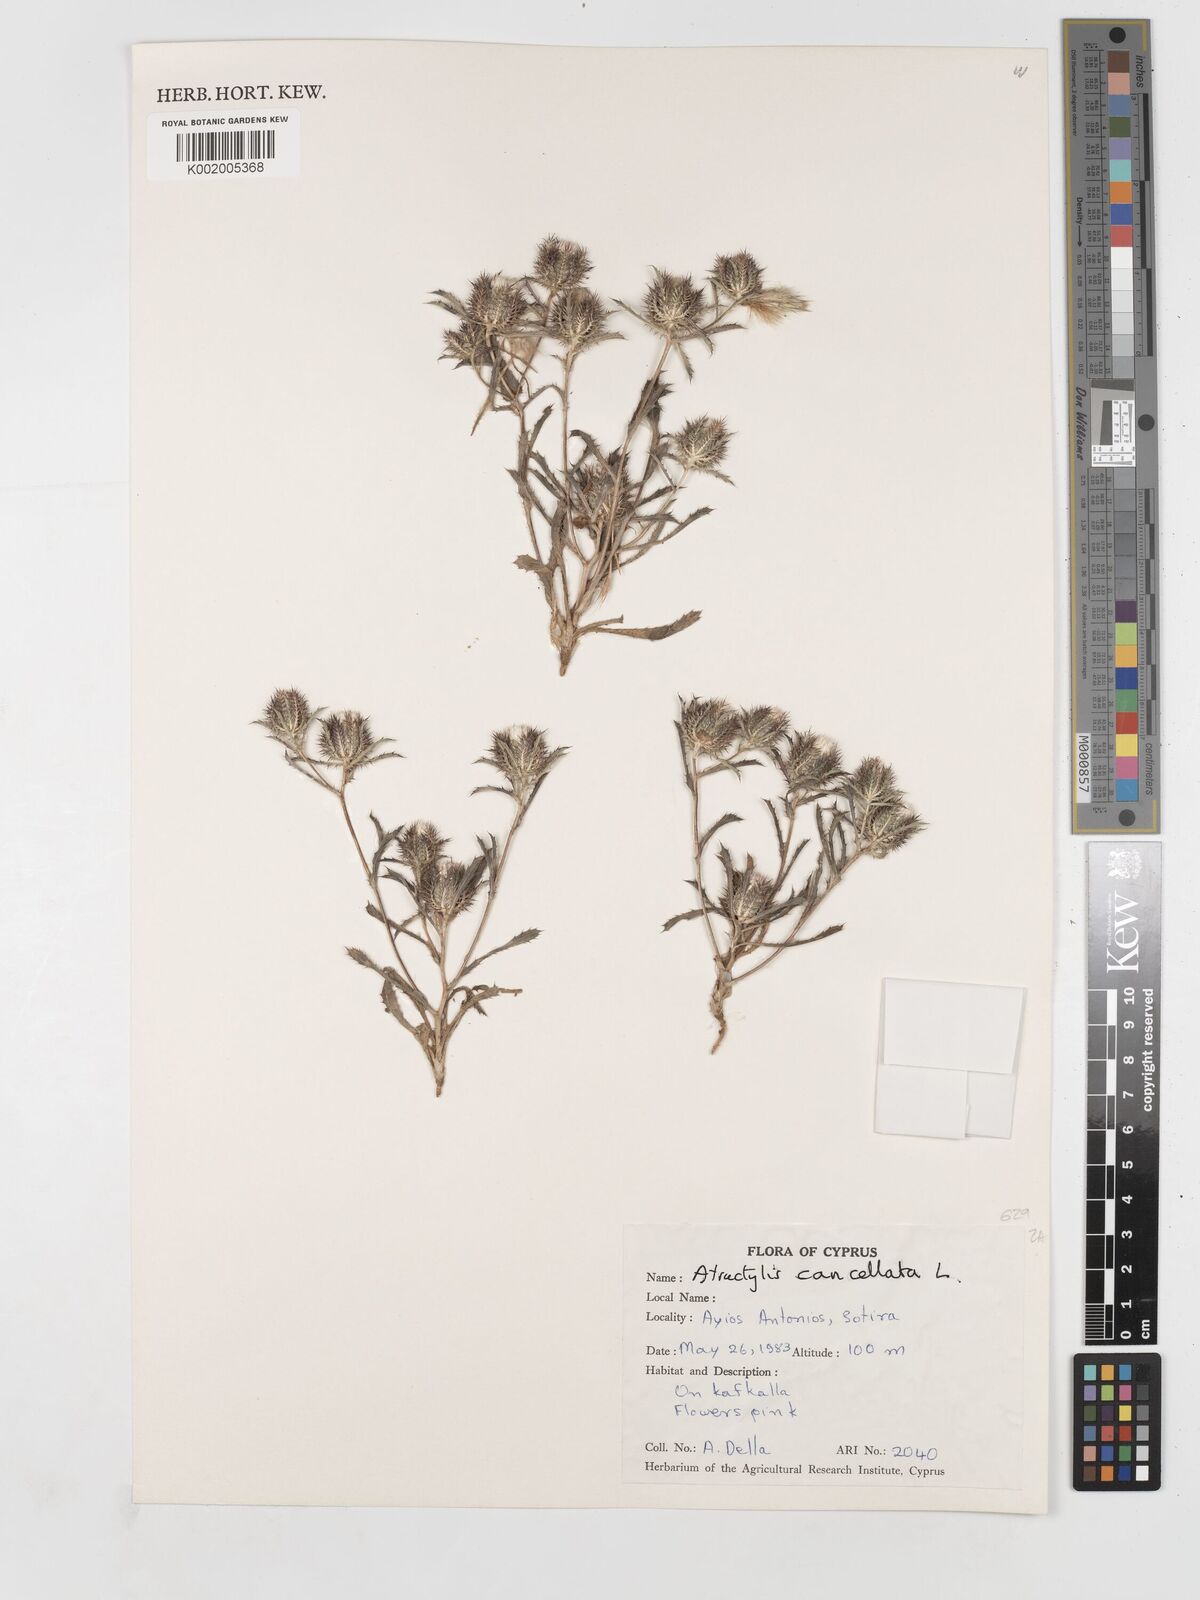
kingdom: Plantae
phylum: Tracheophyta
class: Magnoliopsida
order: Asterales
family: Asteraceae
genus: Atractylis
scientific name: Atractylis cancellata
